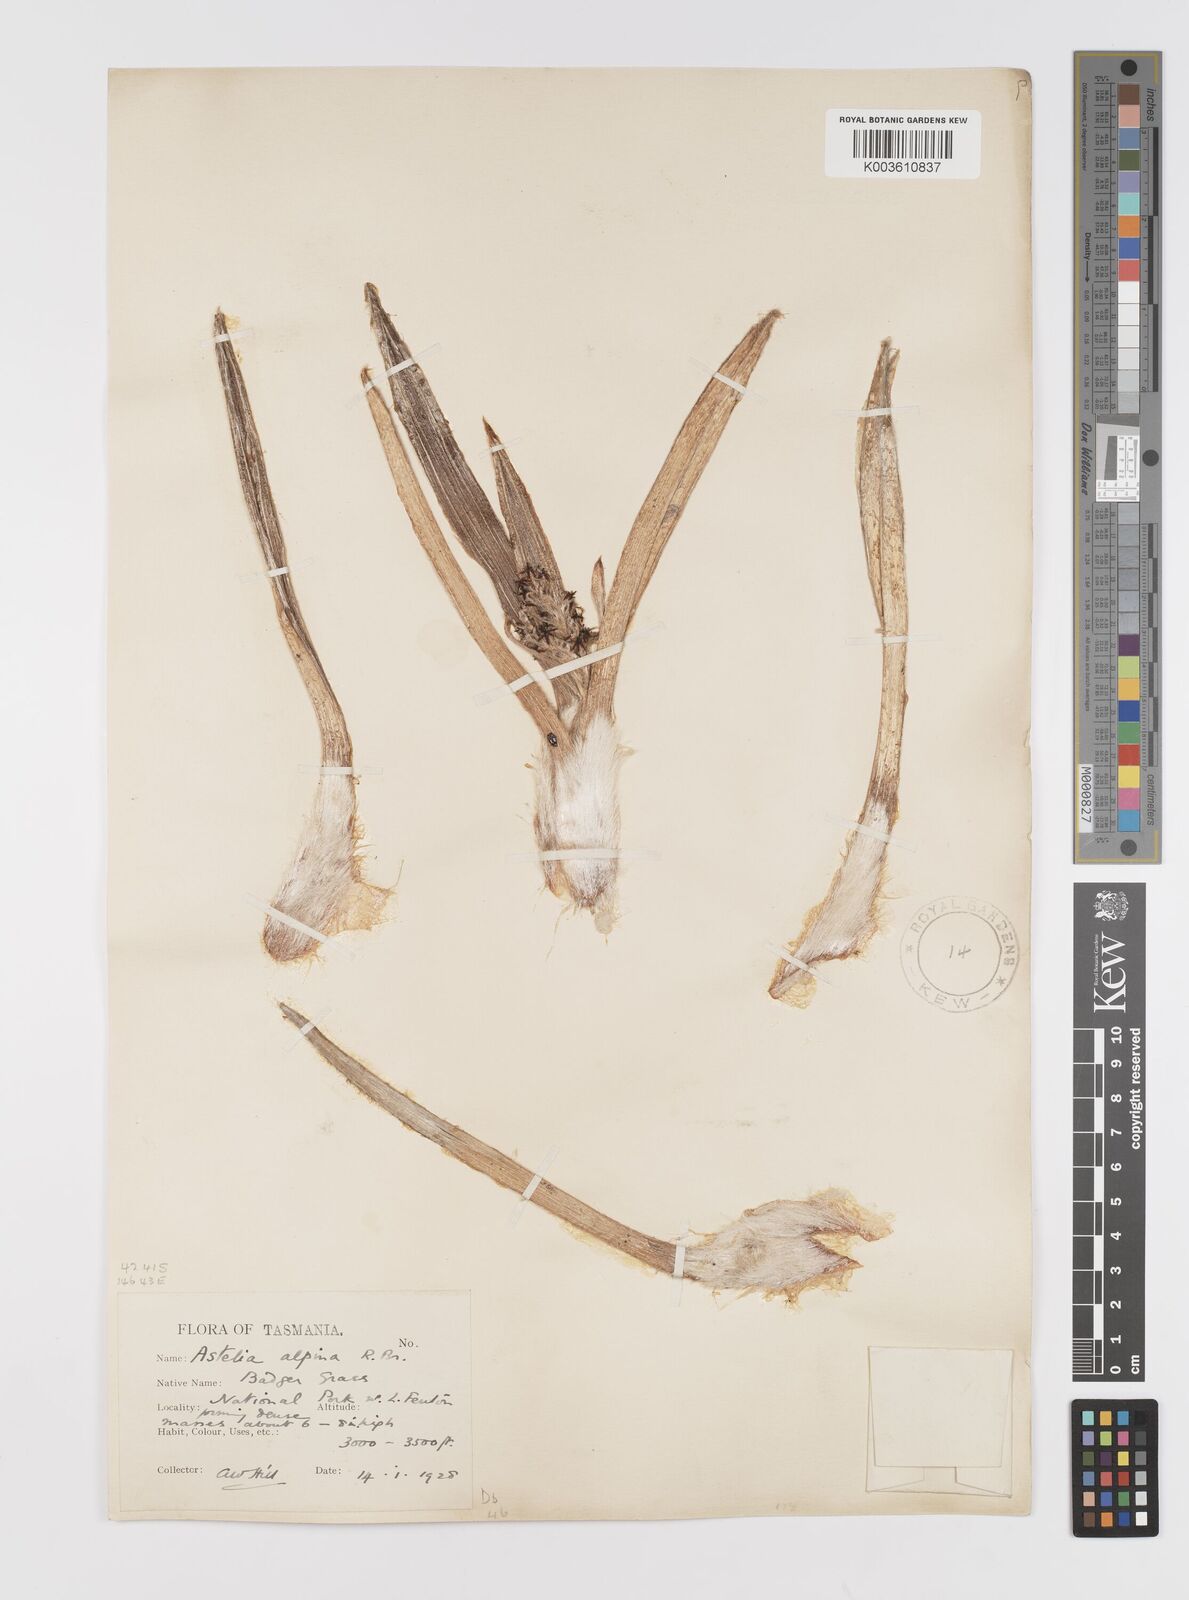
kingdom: Plantae
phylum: Tracheophyta
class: Liliopsida
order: Asparagales
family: Asteliaceae
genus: Astelia
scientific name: Astelia alpina
